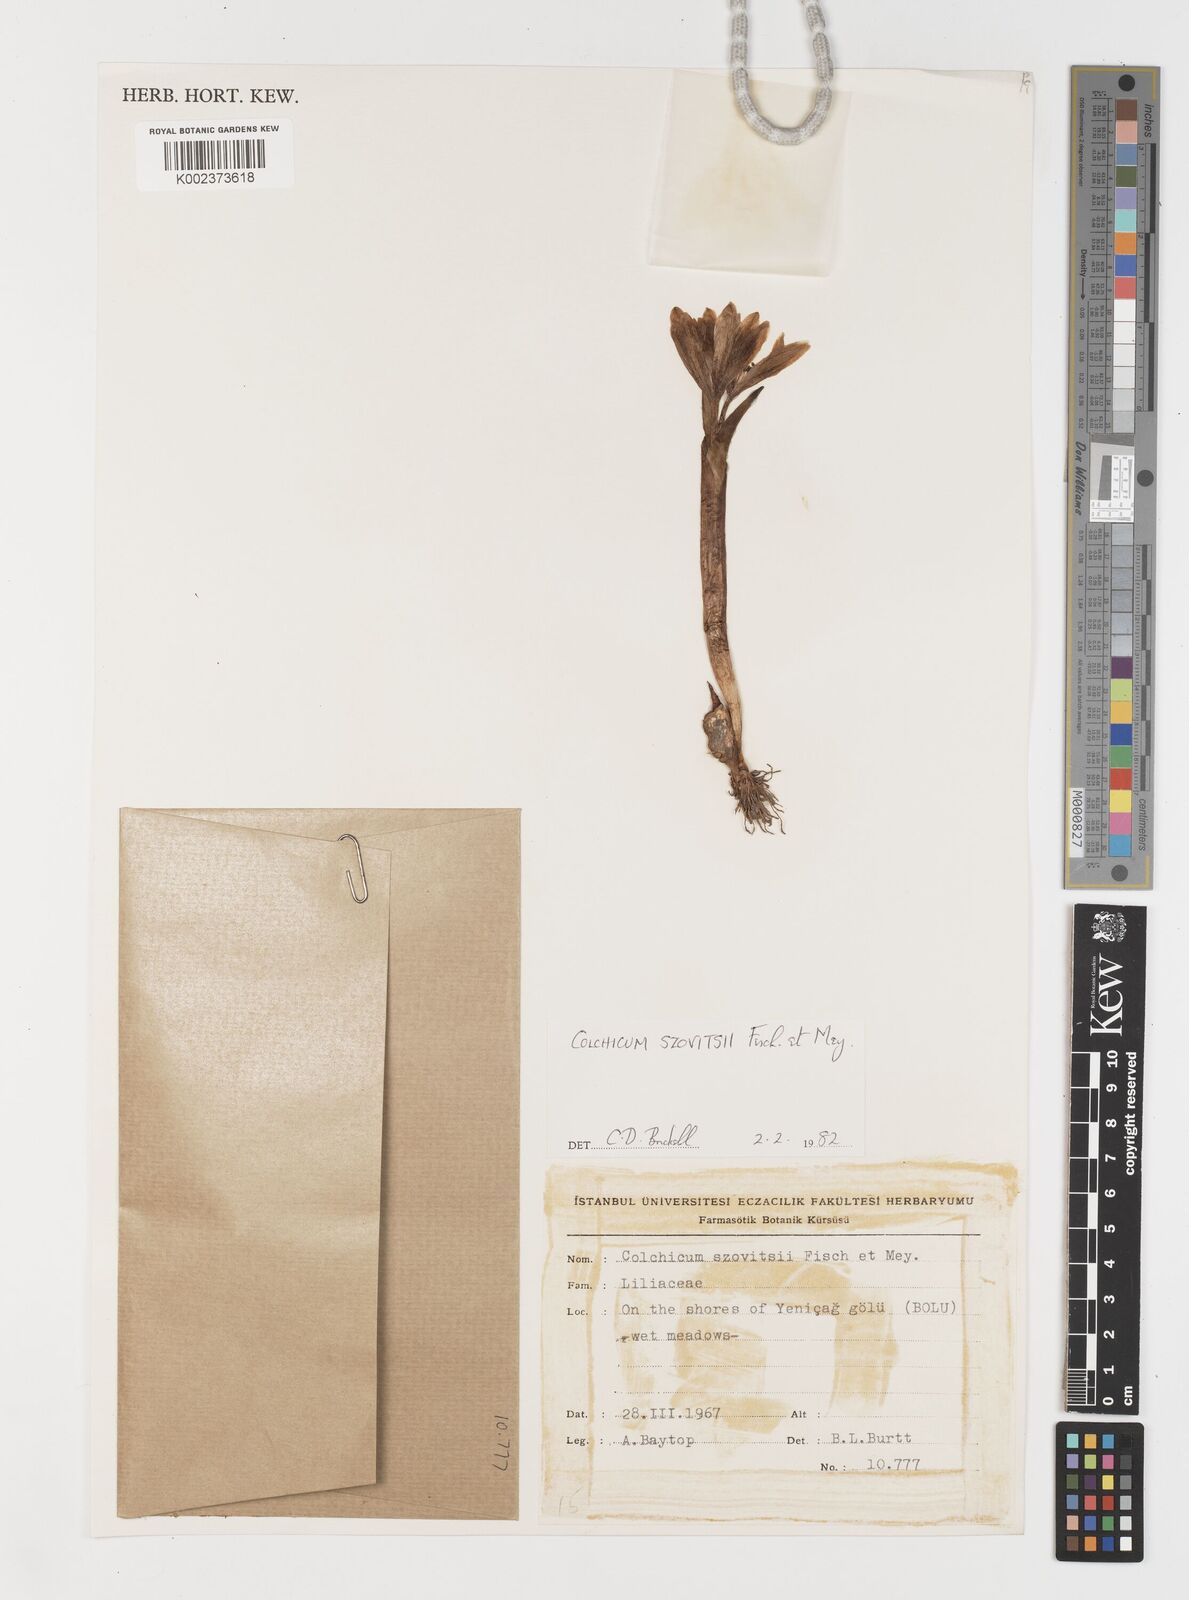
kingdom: Plantae
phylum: Tracheophyta
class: Liliopsida
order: Liliales
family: Colchicaceae
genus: Colchicum
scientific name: Colchicum szovitsii
